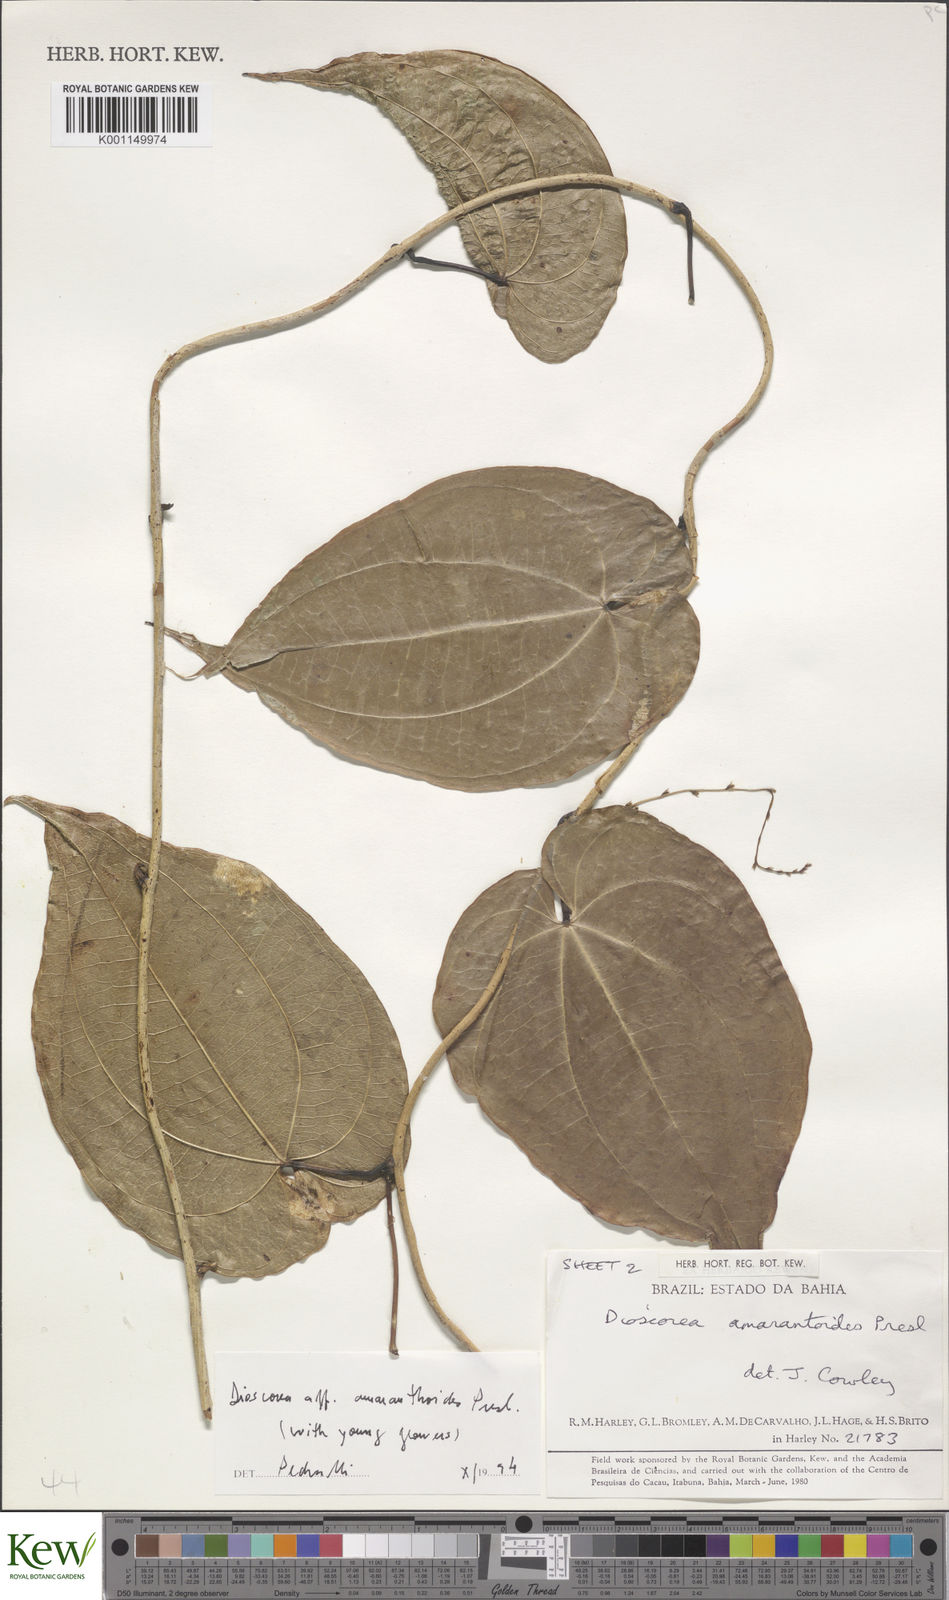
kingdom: Plantae
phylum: Tracheophyta
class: Liliopsida
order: Dioscoreales
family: Dioscoreaceae
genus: Dioscorea
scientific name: Dioscorea
